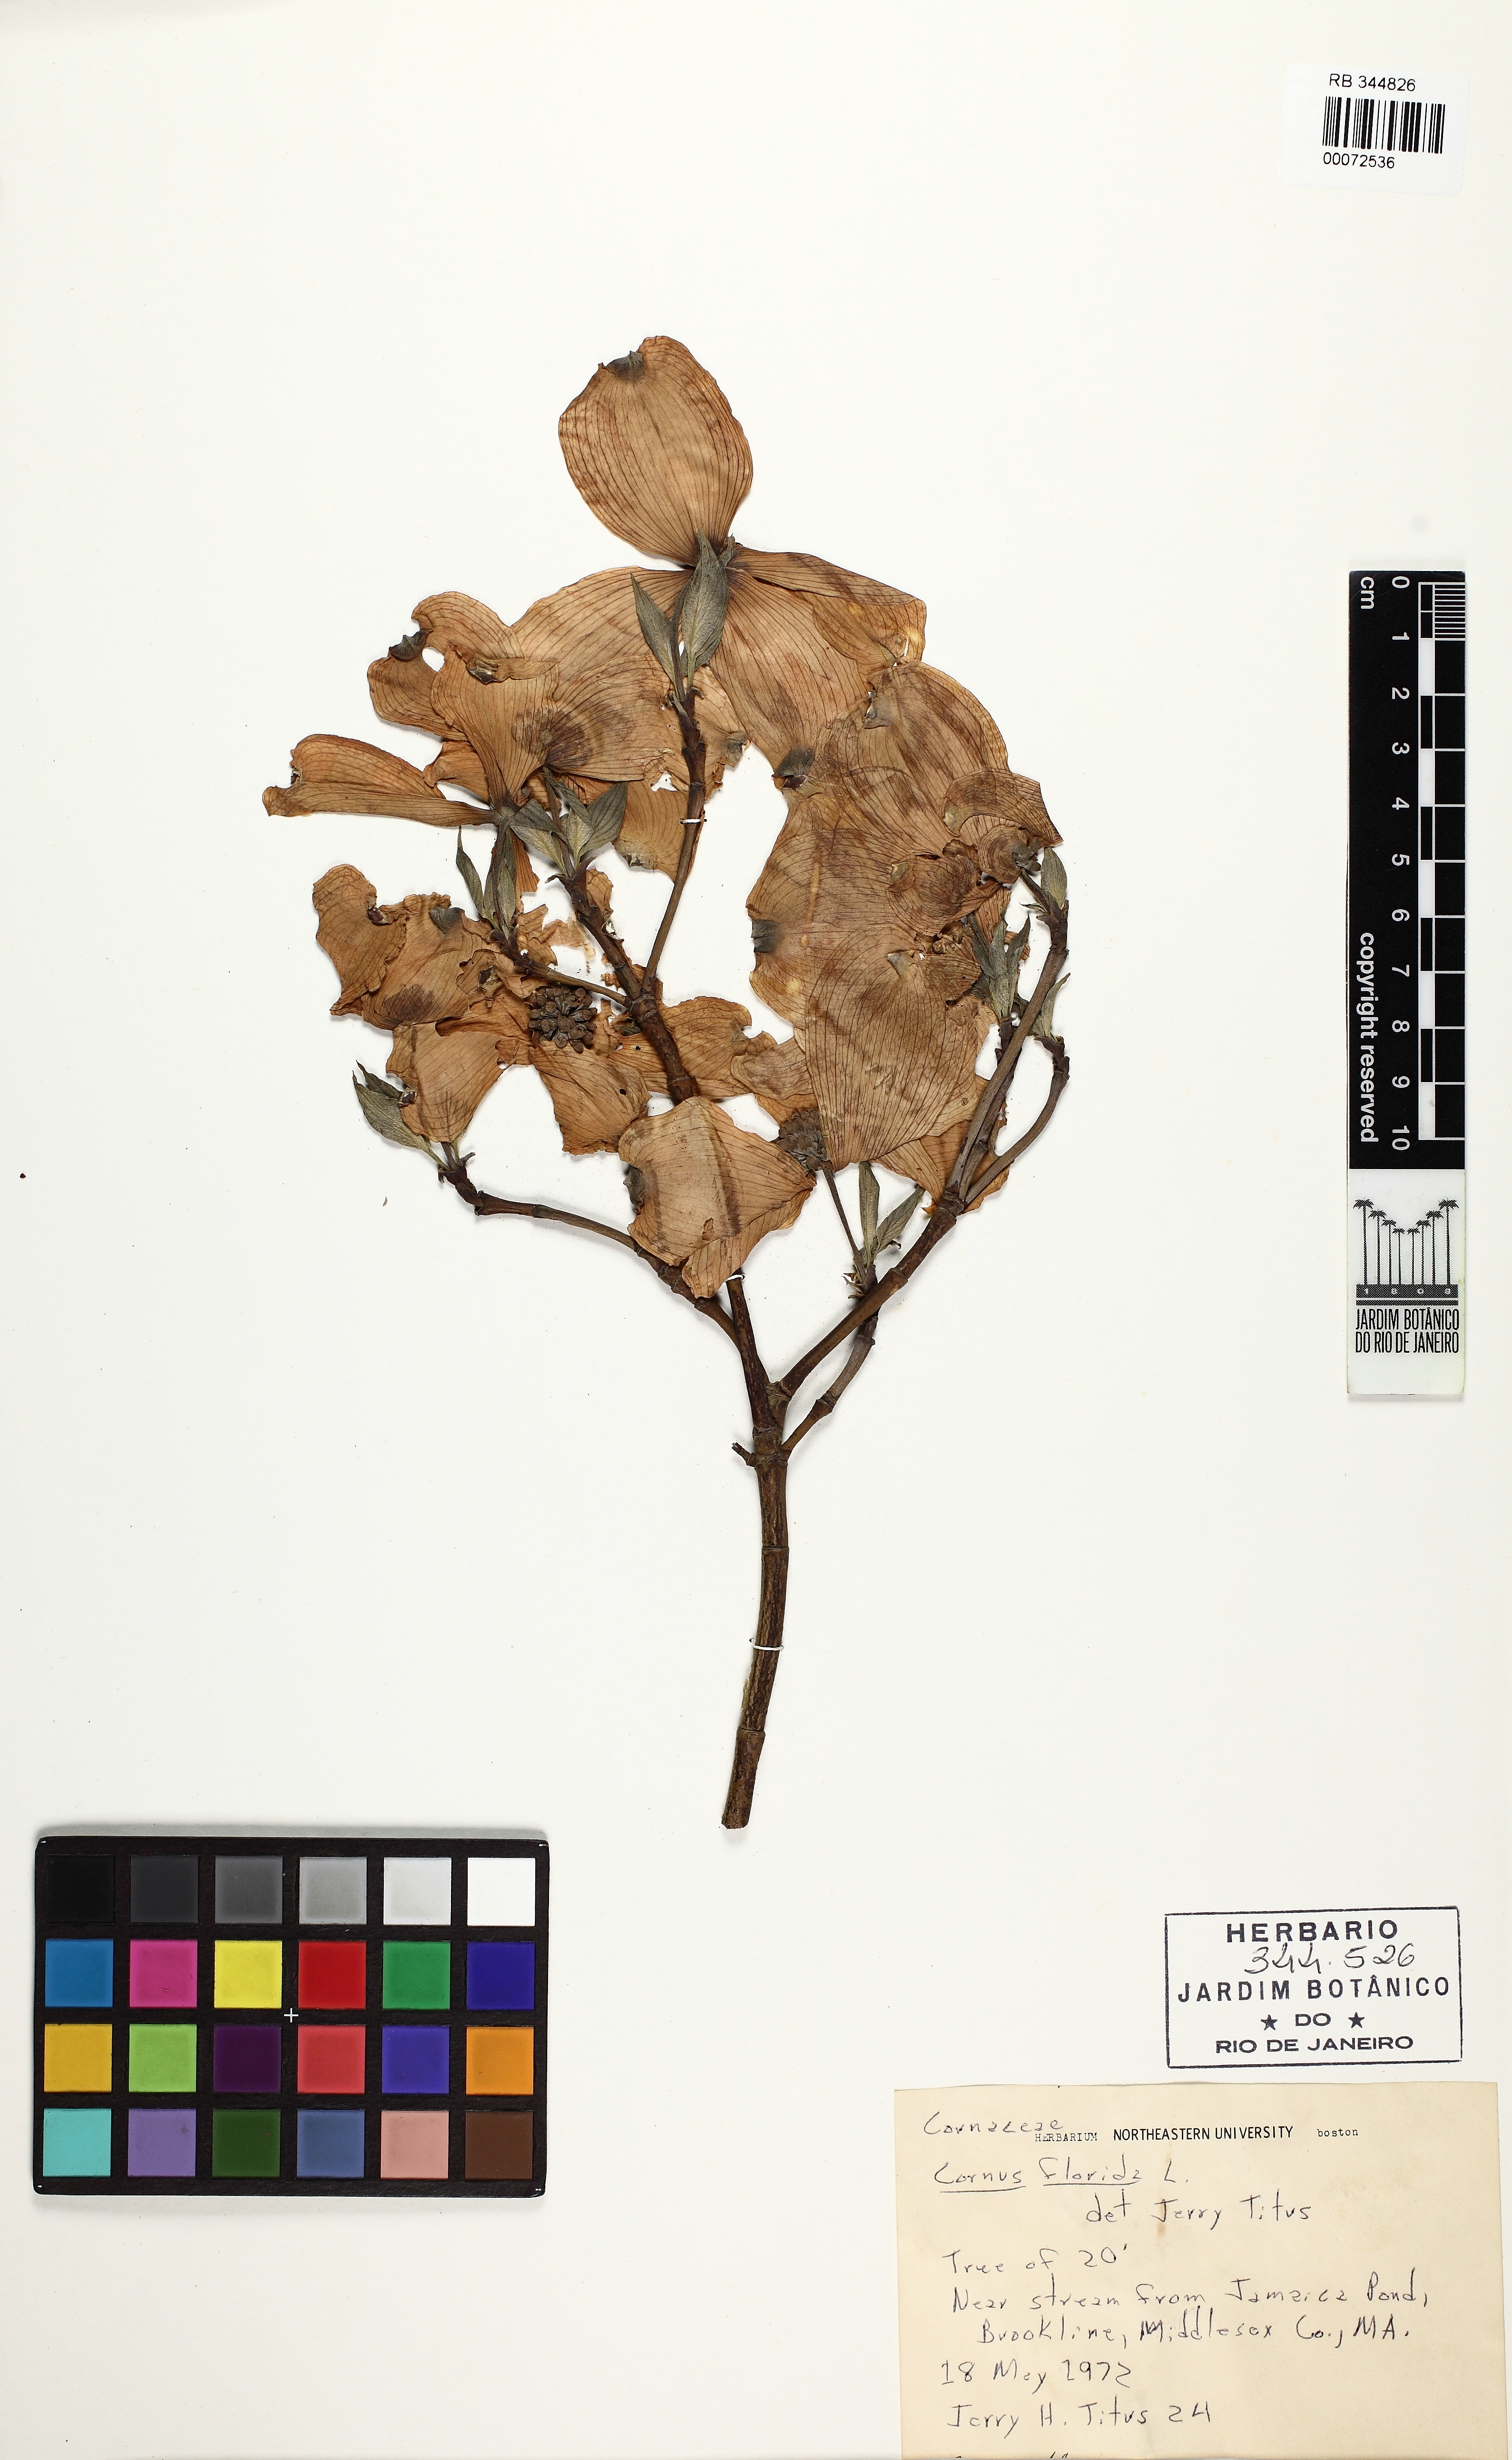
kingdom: Plantae
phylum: Tracheophyta
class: Magnoliopsida
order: Cornales
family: Cornaceae
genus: Cornus
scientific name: Cornus kousa
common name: Japanese dogwood
